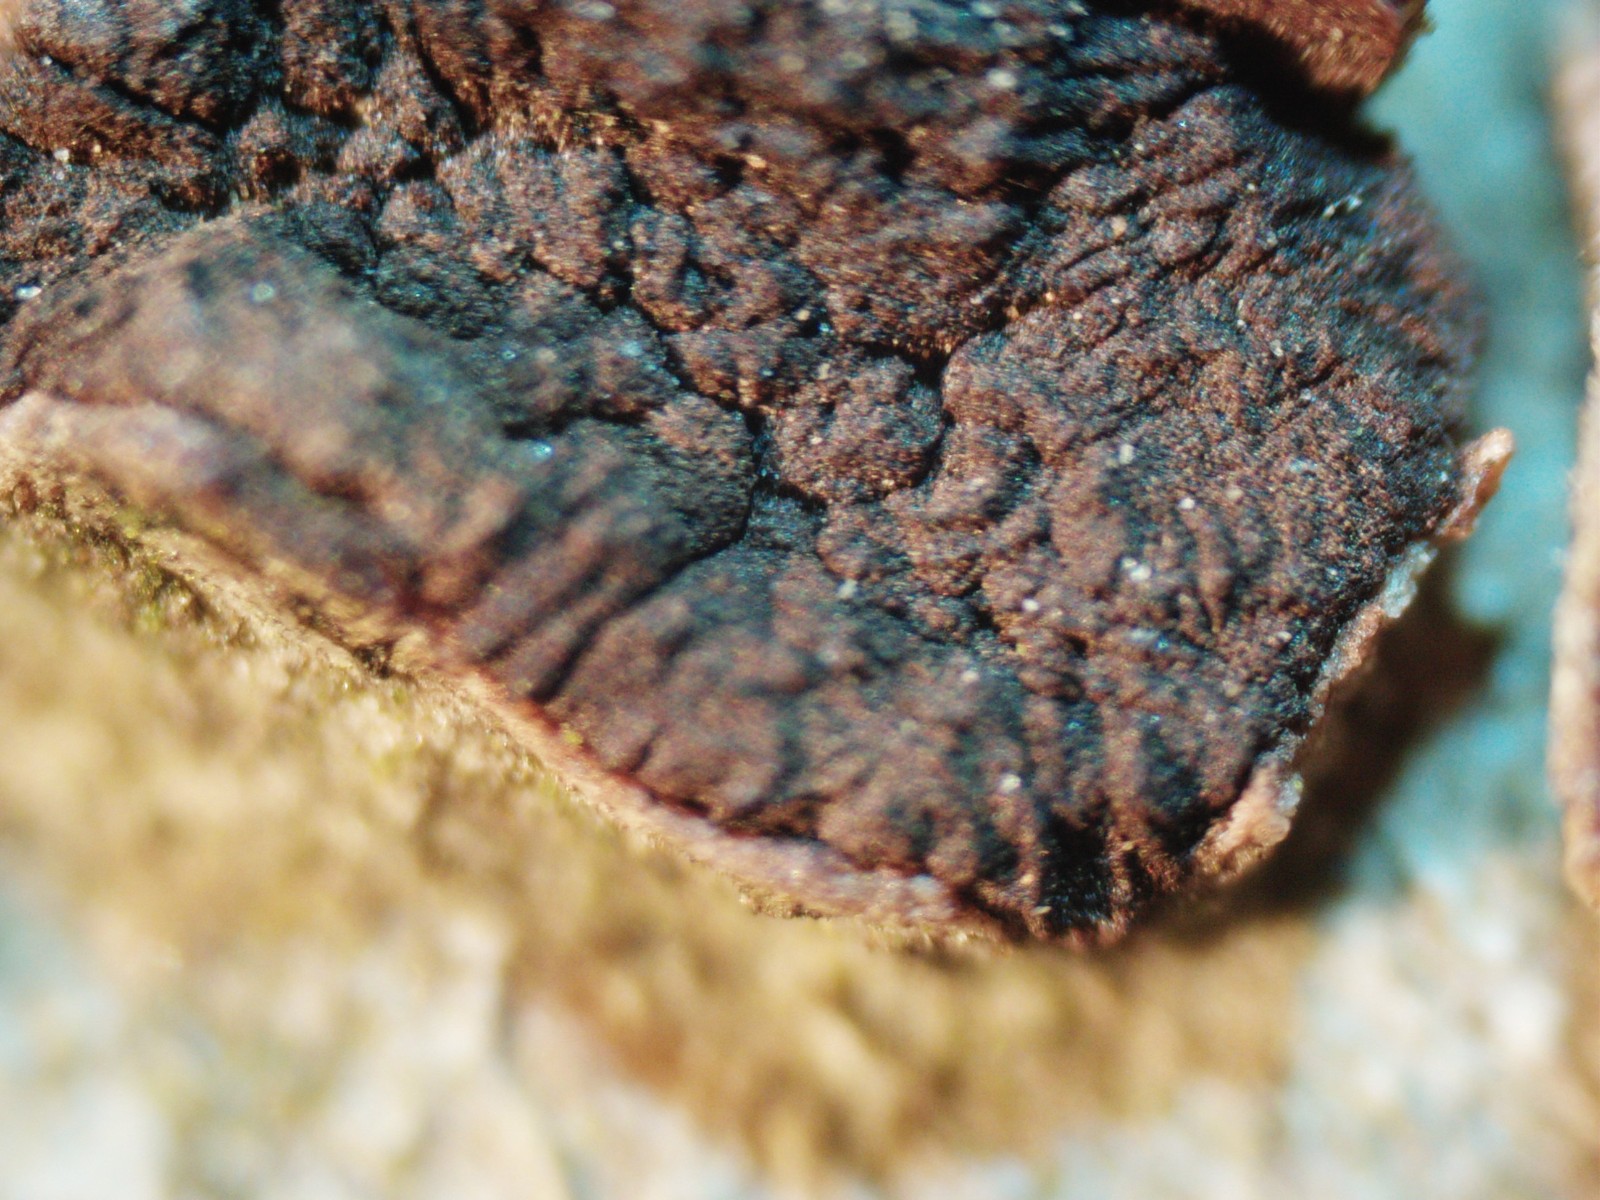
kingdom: Fungi
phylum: Ascomycota
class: Sordariomycetes
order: Xylariales
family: Graphostromataceae
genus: Biscogniauxia
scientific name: Biscogniauxia nummularia
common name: bøge-kulskive
